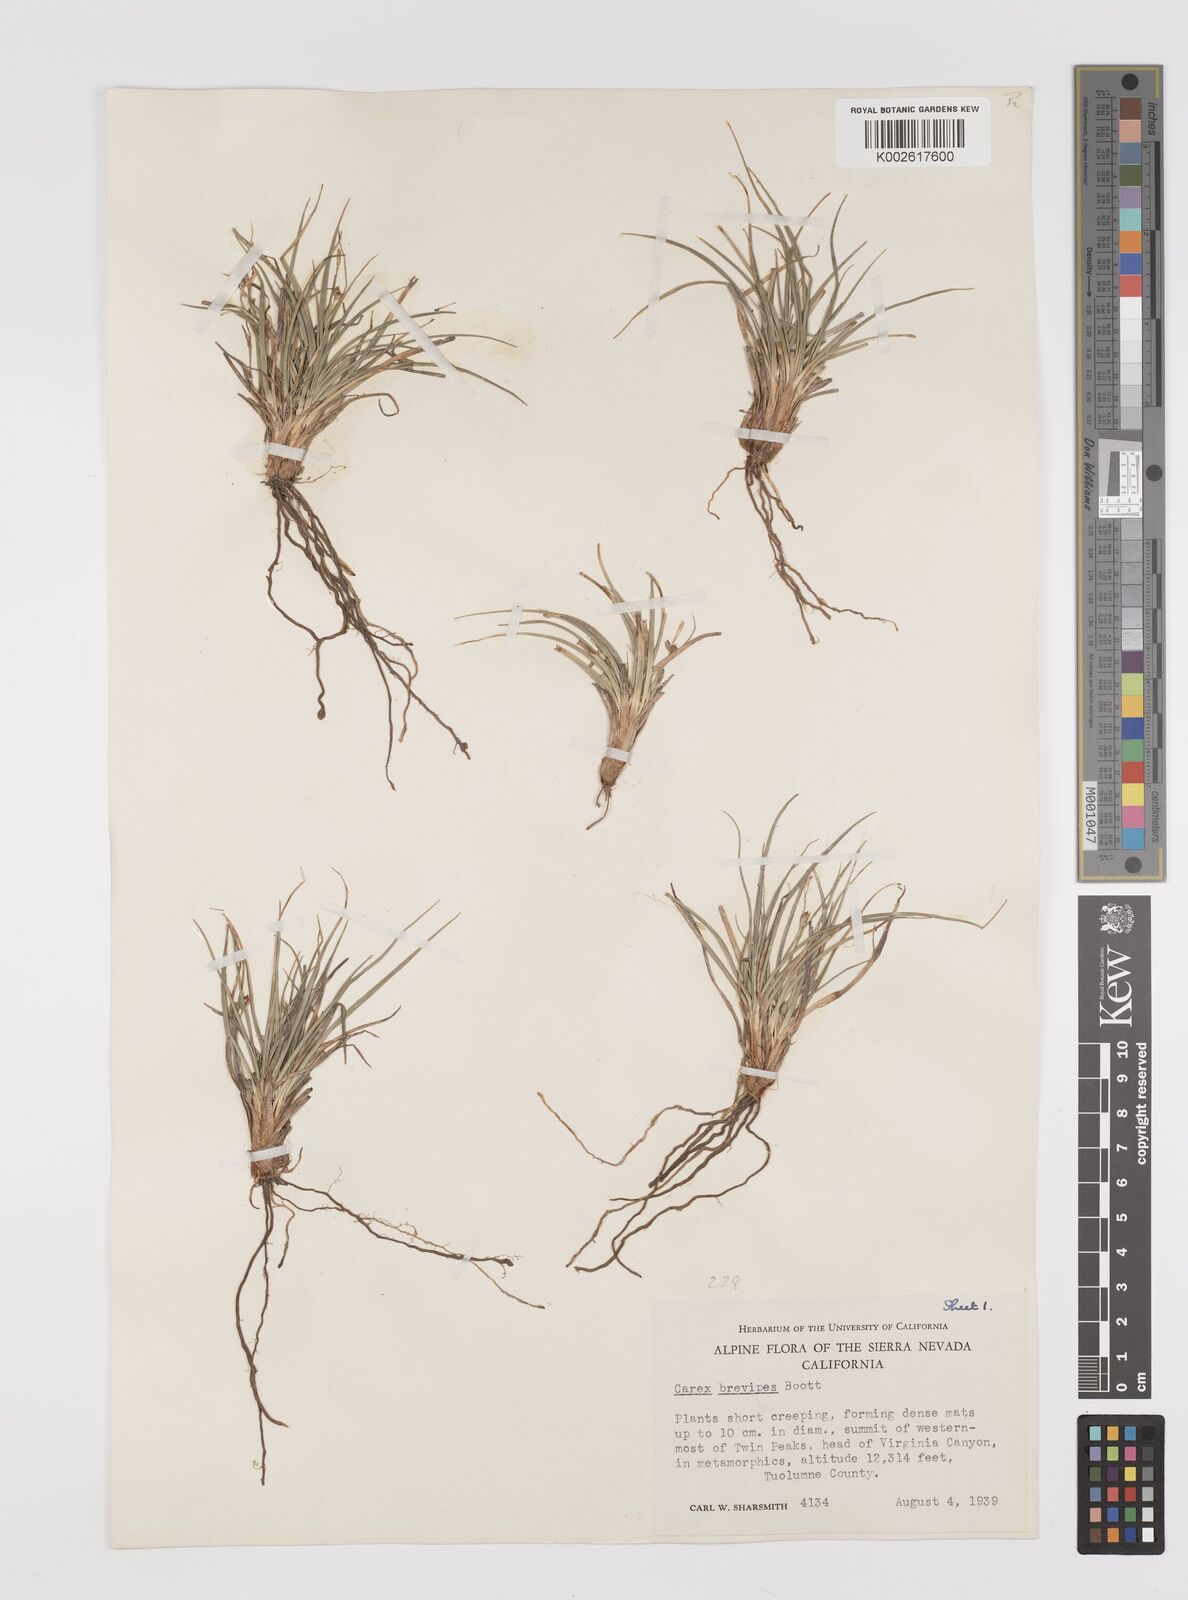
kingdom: Plantae
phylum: Tracheophyta
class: Liliopsida
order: Poales
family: Cyperaceae
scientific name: Cyperaceae
